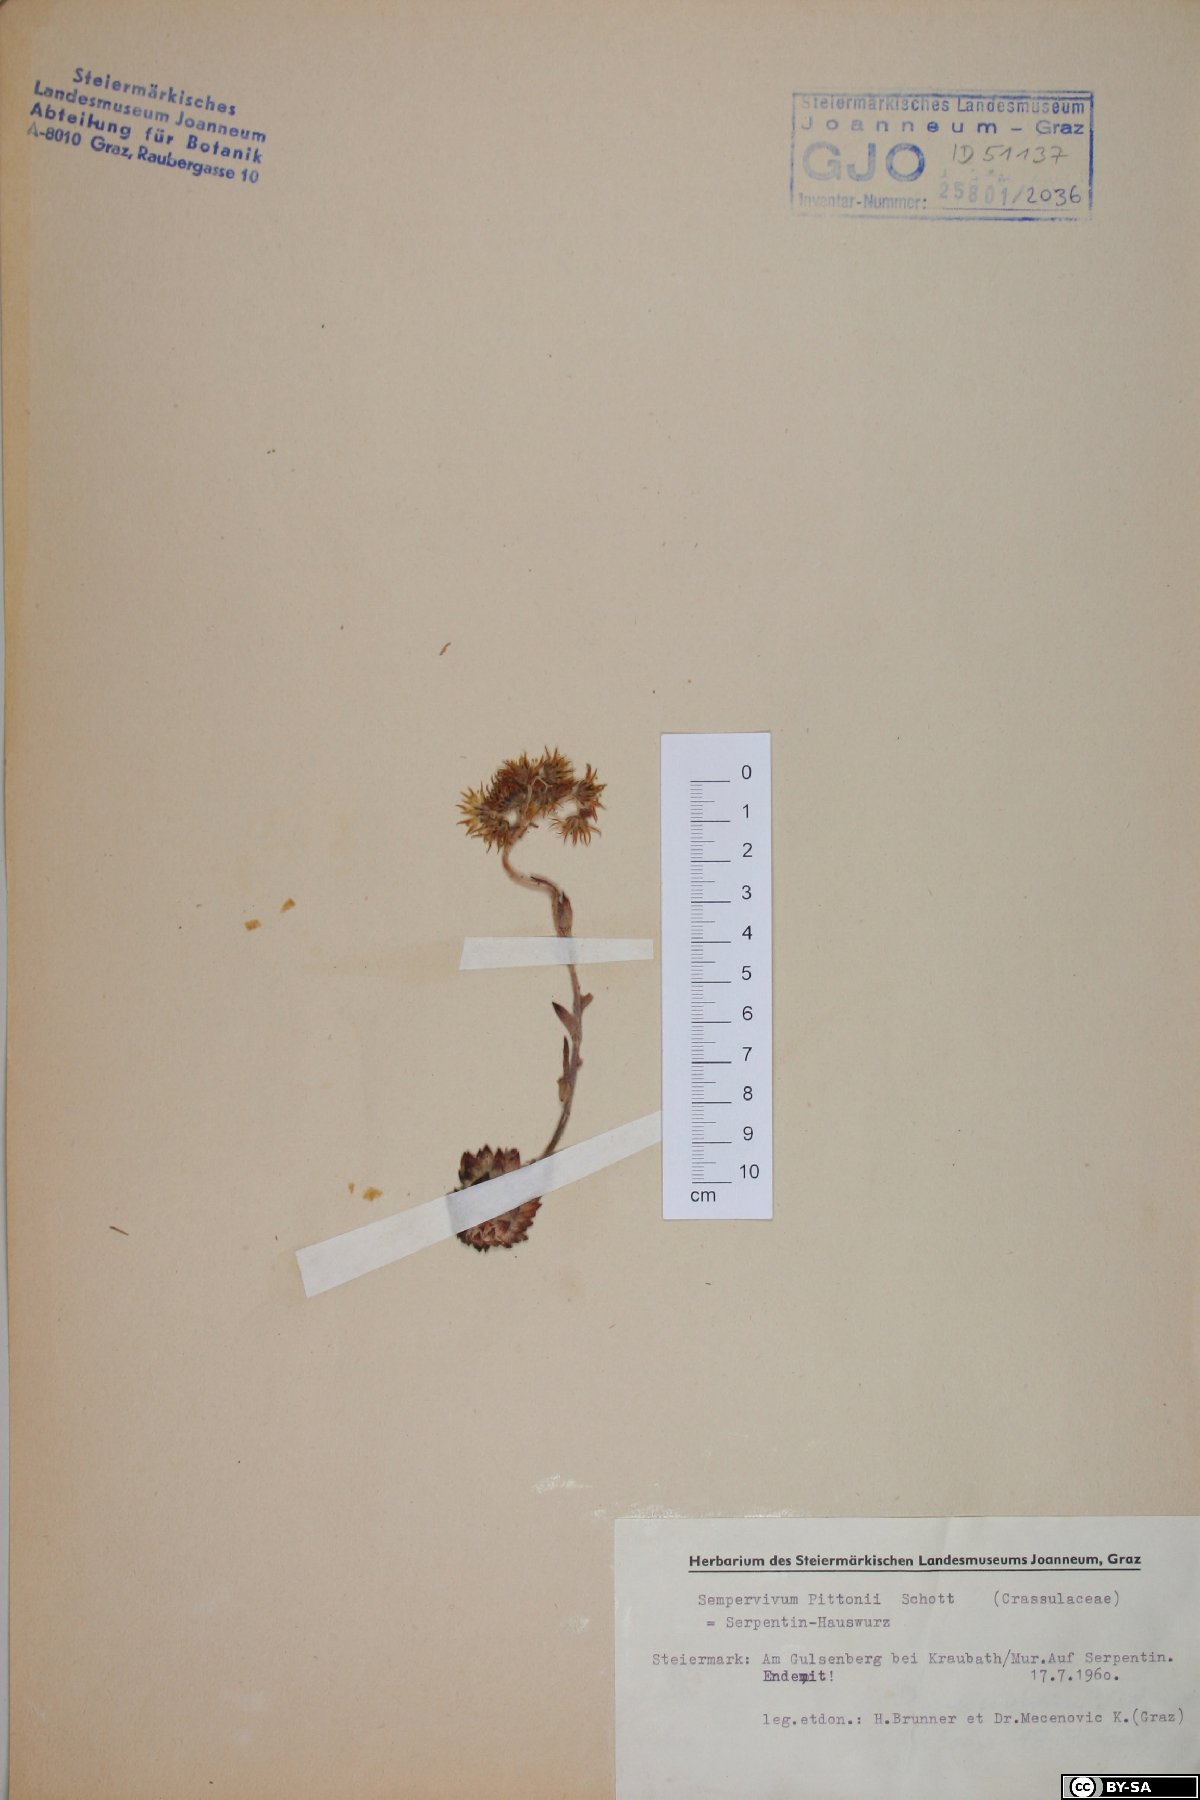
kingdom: Plantae
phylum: Tracheophyta
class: Magnoliopsida
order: Saxifragales
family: Crassulaceae
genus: Sempervivum
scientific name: Sempervivum pittonii
